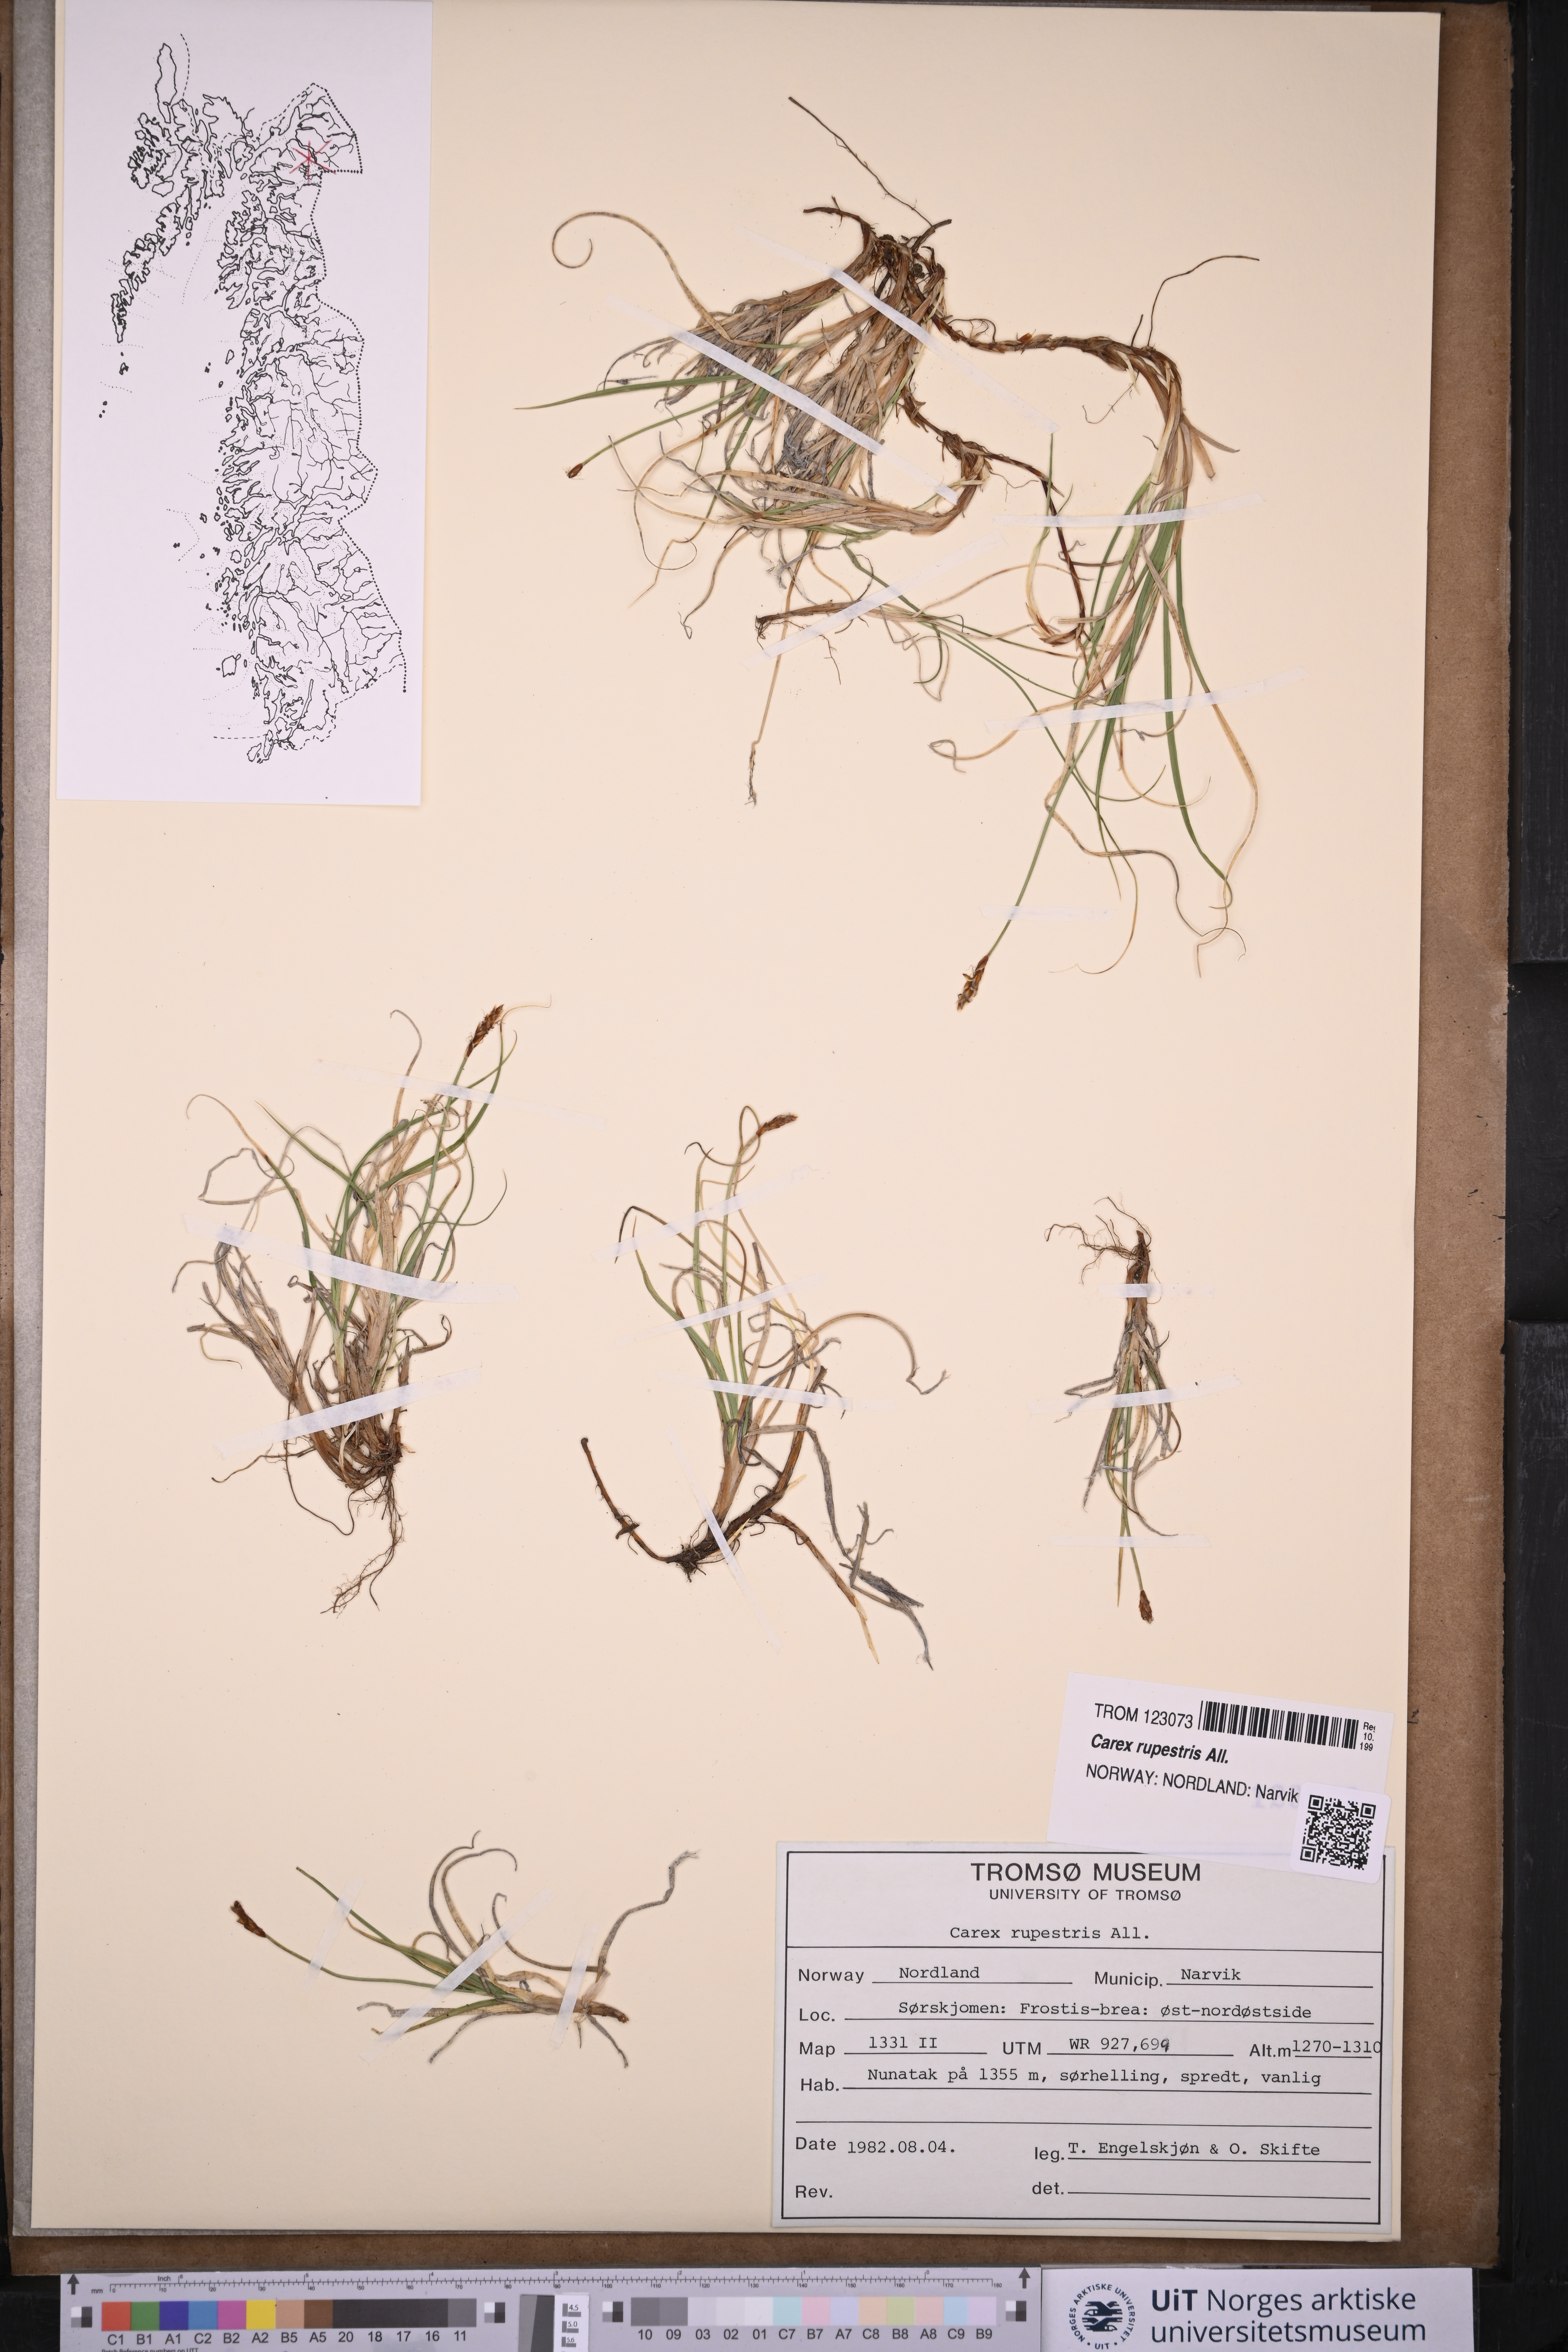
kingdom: Plantae
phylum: Tracheophyta
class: Liliopsida
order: Poales
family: Cyperaceae
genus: Carex
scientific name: Carex rupestris
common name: Rock sedge
